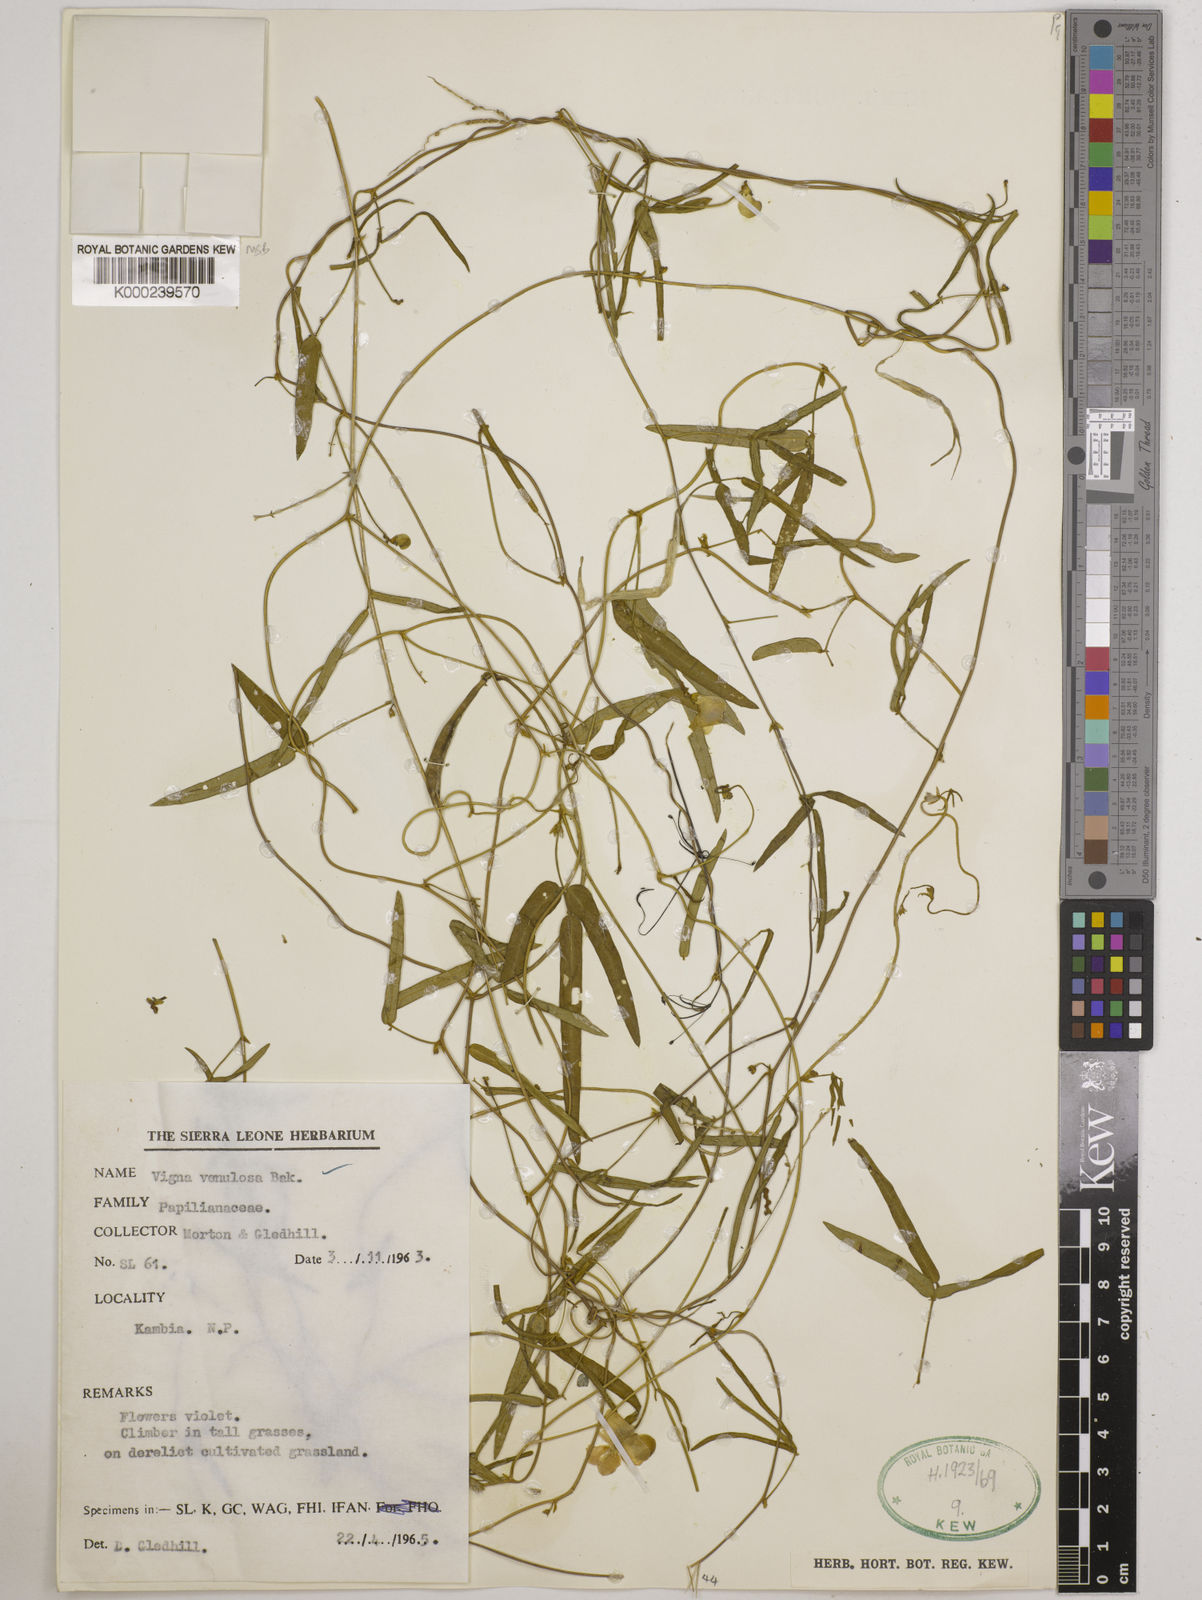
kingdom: Plantae
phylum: Tracheophyta
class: Magnoliopsida
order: Fabales
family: Fabaceae
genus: Vigna
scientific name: Vigna venulosa
